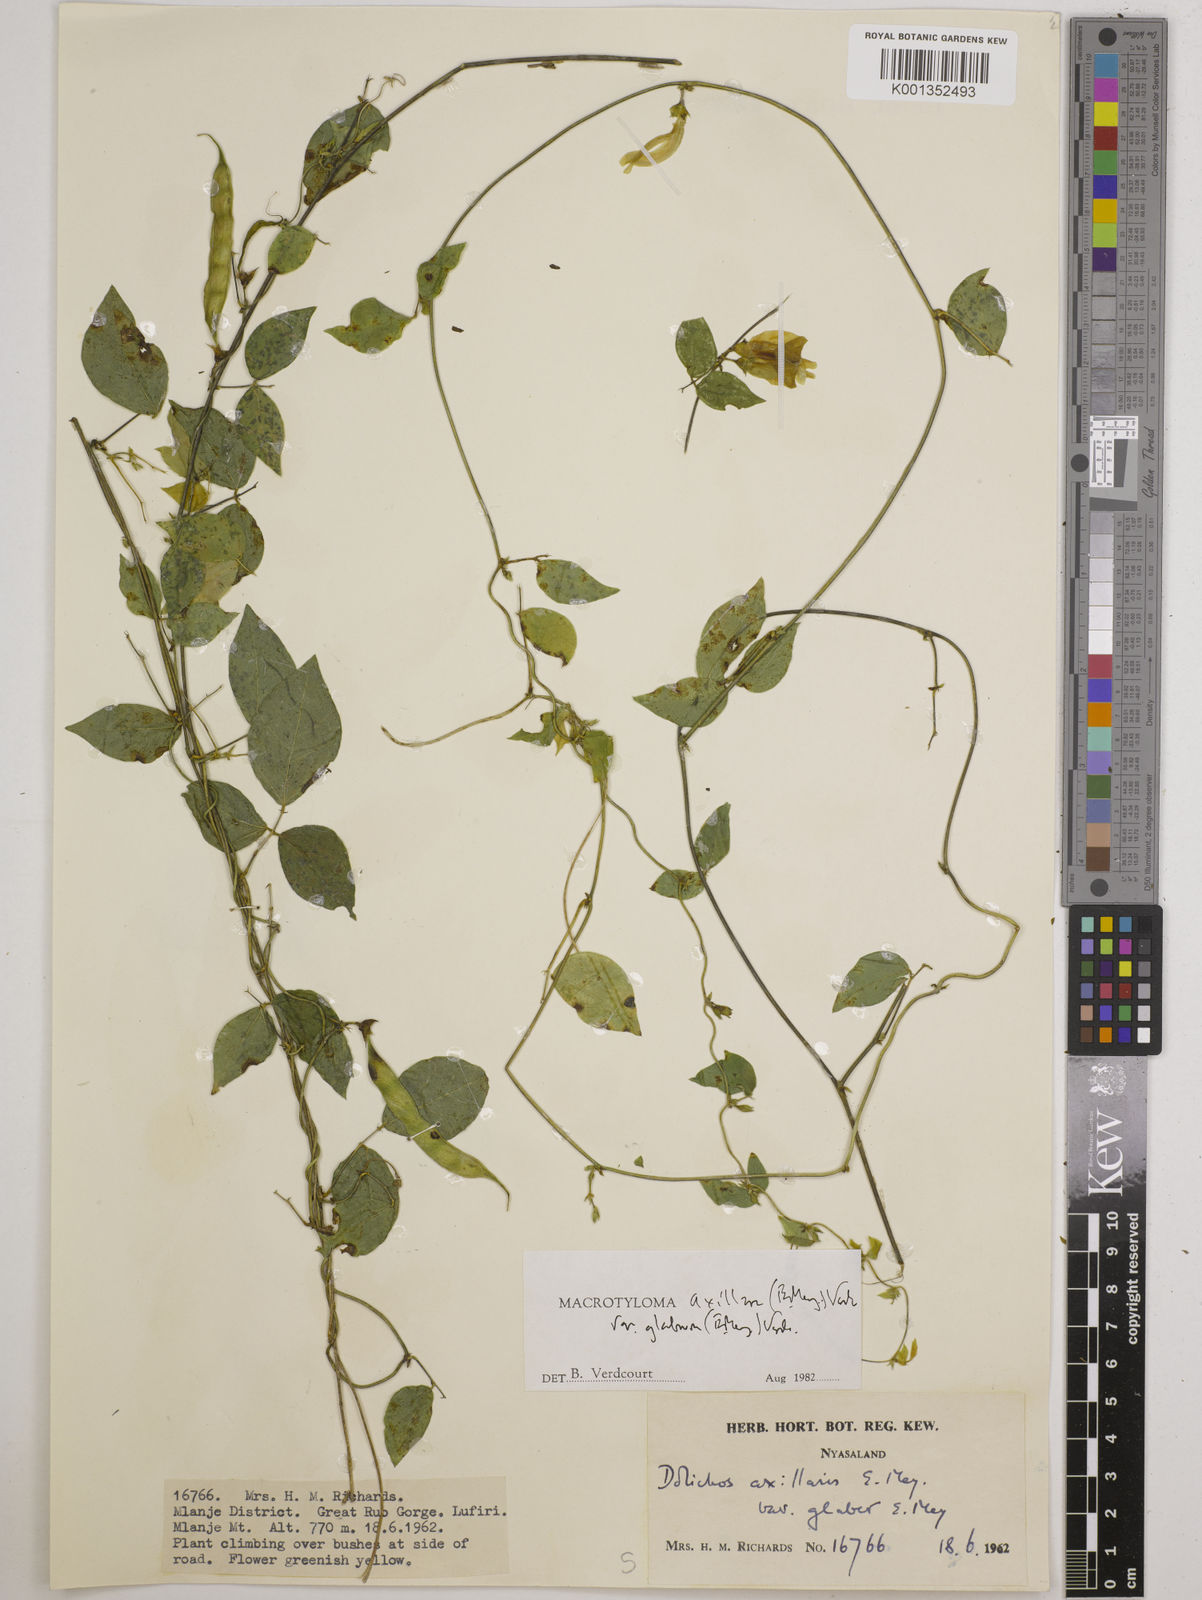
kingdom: Plantae
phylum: Tracheophyta
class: Magnoliopsida
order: Fabales
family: Fabaceae
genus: Macrotyloma
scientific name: Macrotyloma
